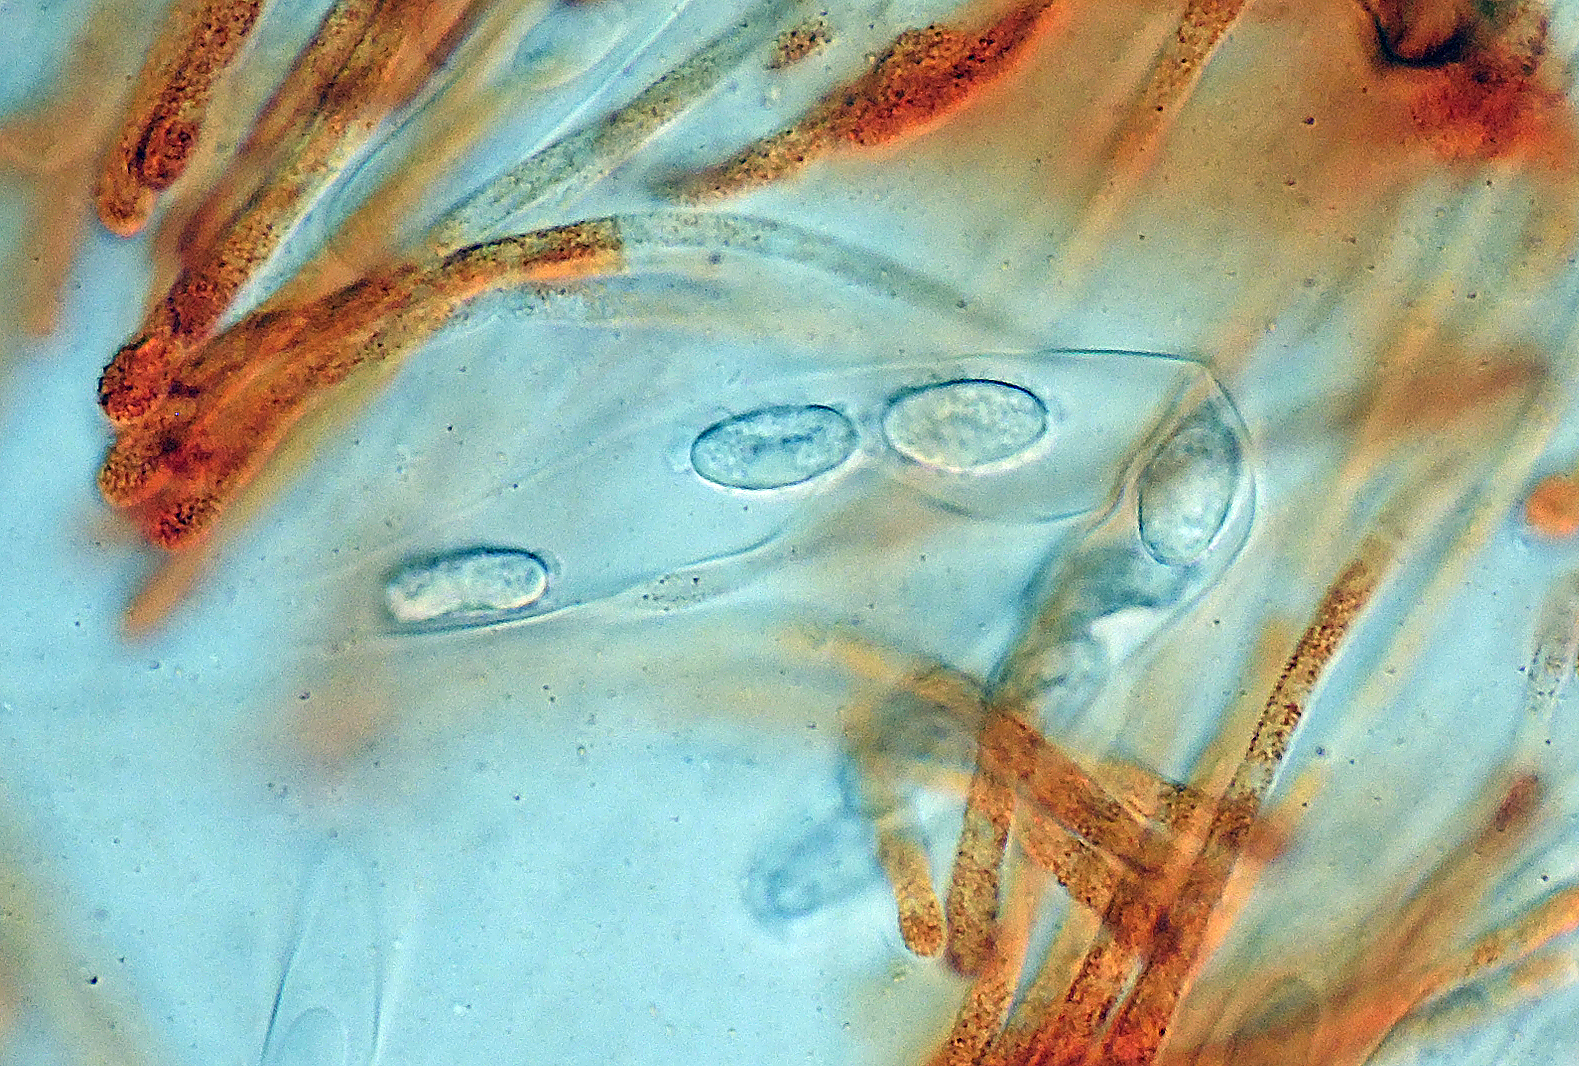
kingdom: Fungi
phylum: Ascomycota
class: Pezizomycetes
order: Pezizales
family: Pyronemataceae
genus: Melastiza
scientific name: Melastiza flavorubens
